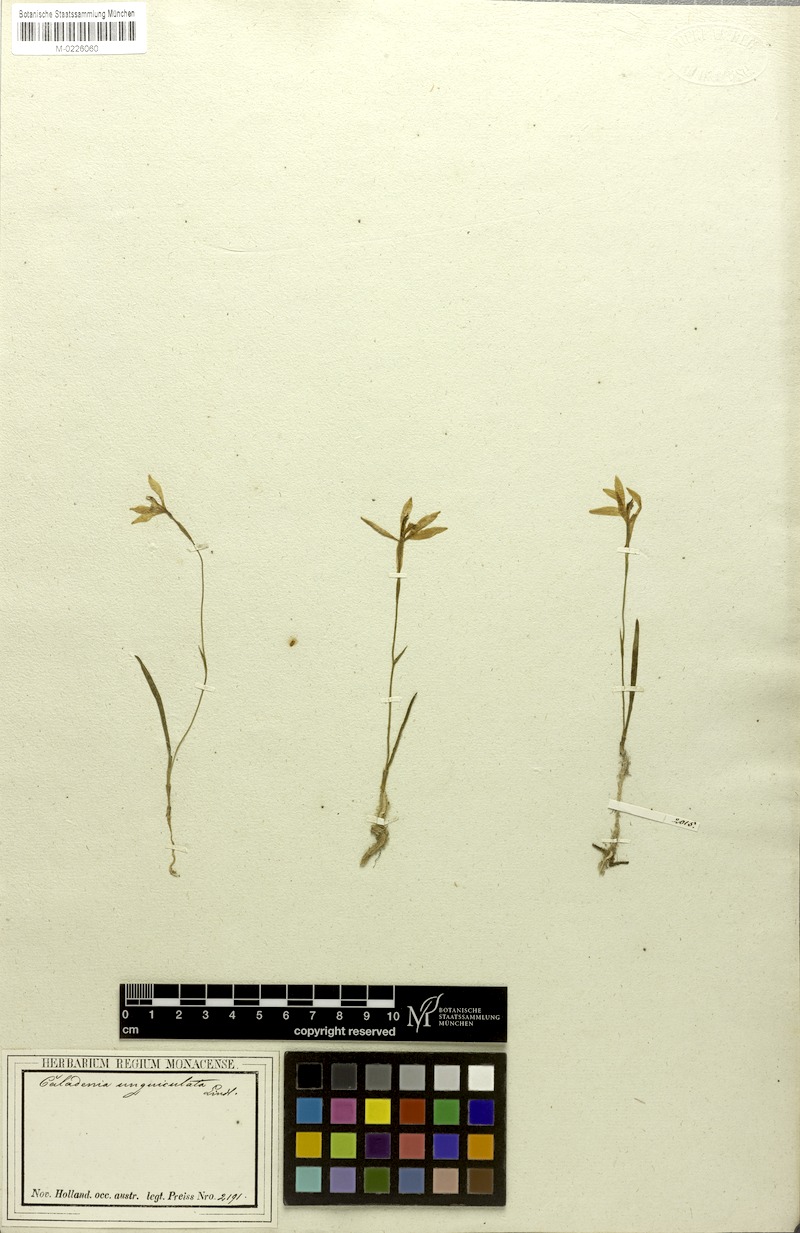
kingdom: Plantae
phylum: Tracheophyta
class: Liliopsida
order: Asparagales
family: Orchidaceae
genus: Pheladenia
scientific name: Pheladenia deformis
